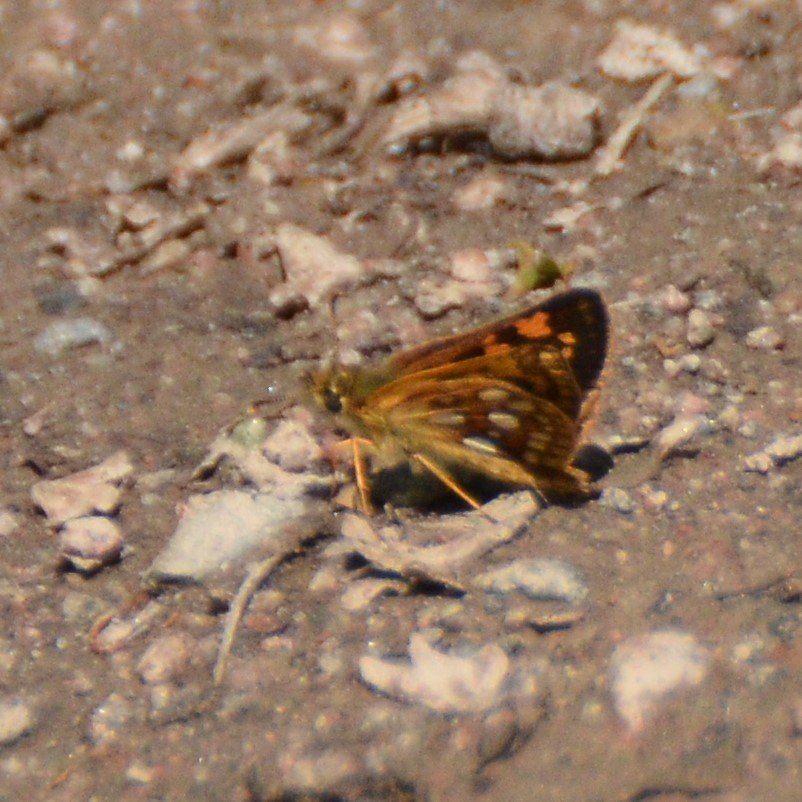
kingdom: Animalia
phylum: Arthropoda
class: Insecta
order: Lepidoptera
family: Hesperiidae
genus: Carterocephalus
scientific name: Carterocephalus palaemon
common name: Chequered Skipper
